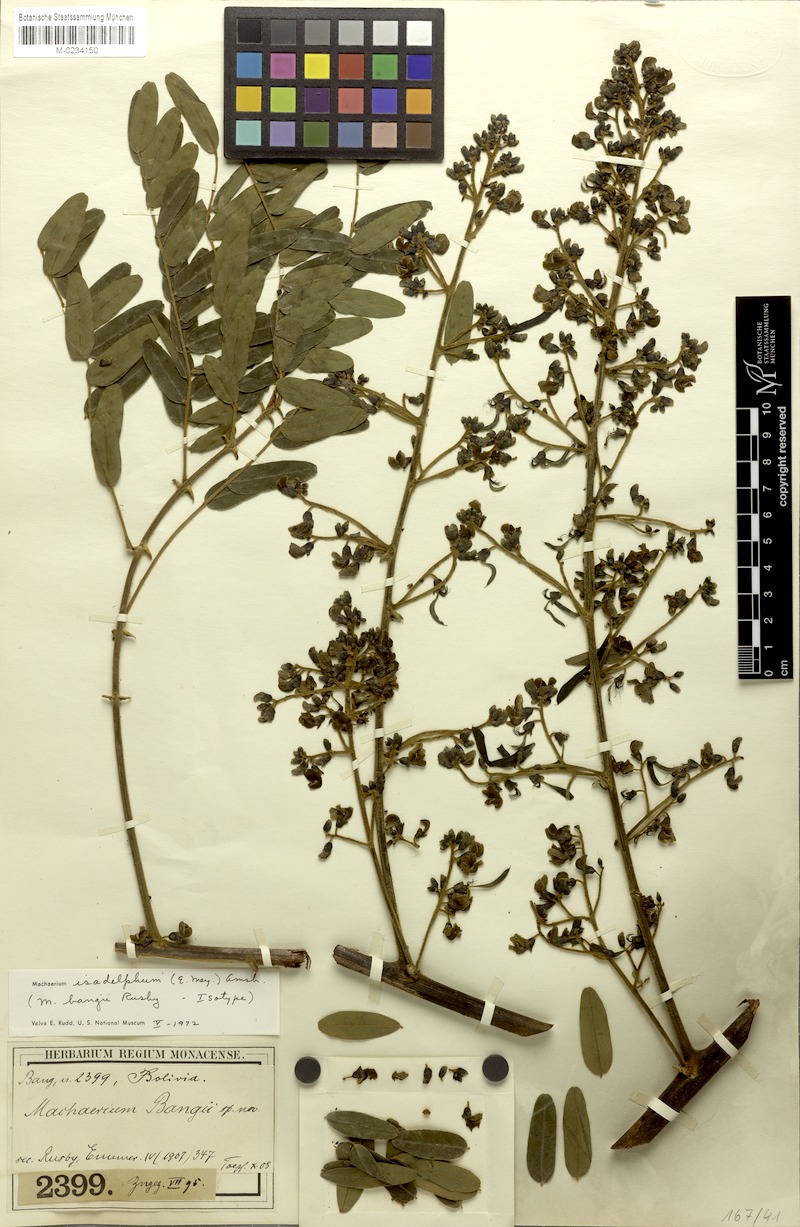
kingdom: Plantae
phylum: Tracheophyta
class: Magnoliopsida
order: Fabales
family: Fabaceae
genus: Machaerium
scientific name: Machaerium isadelphum
